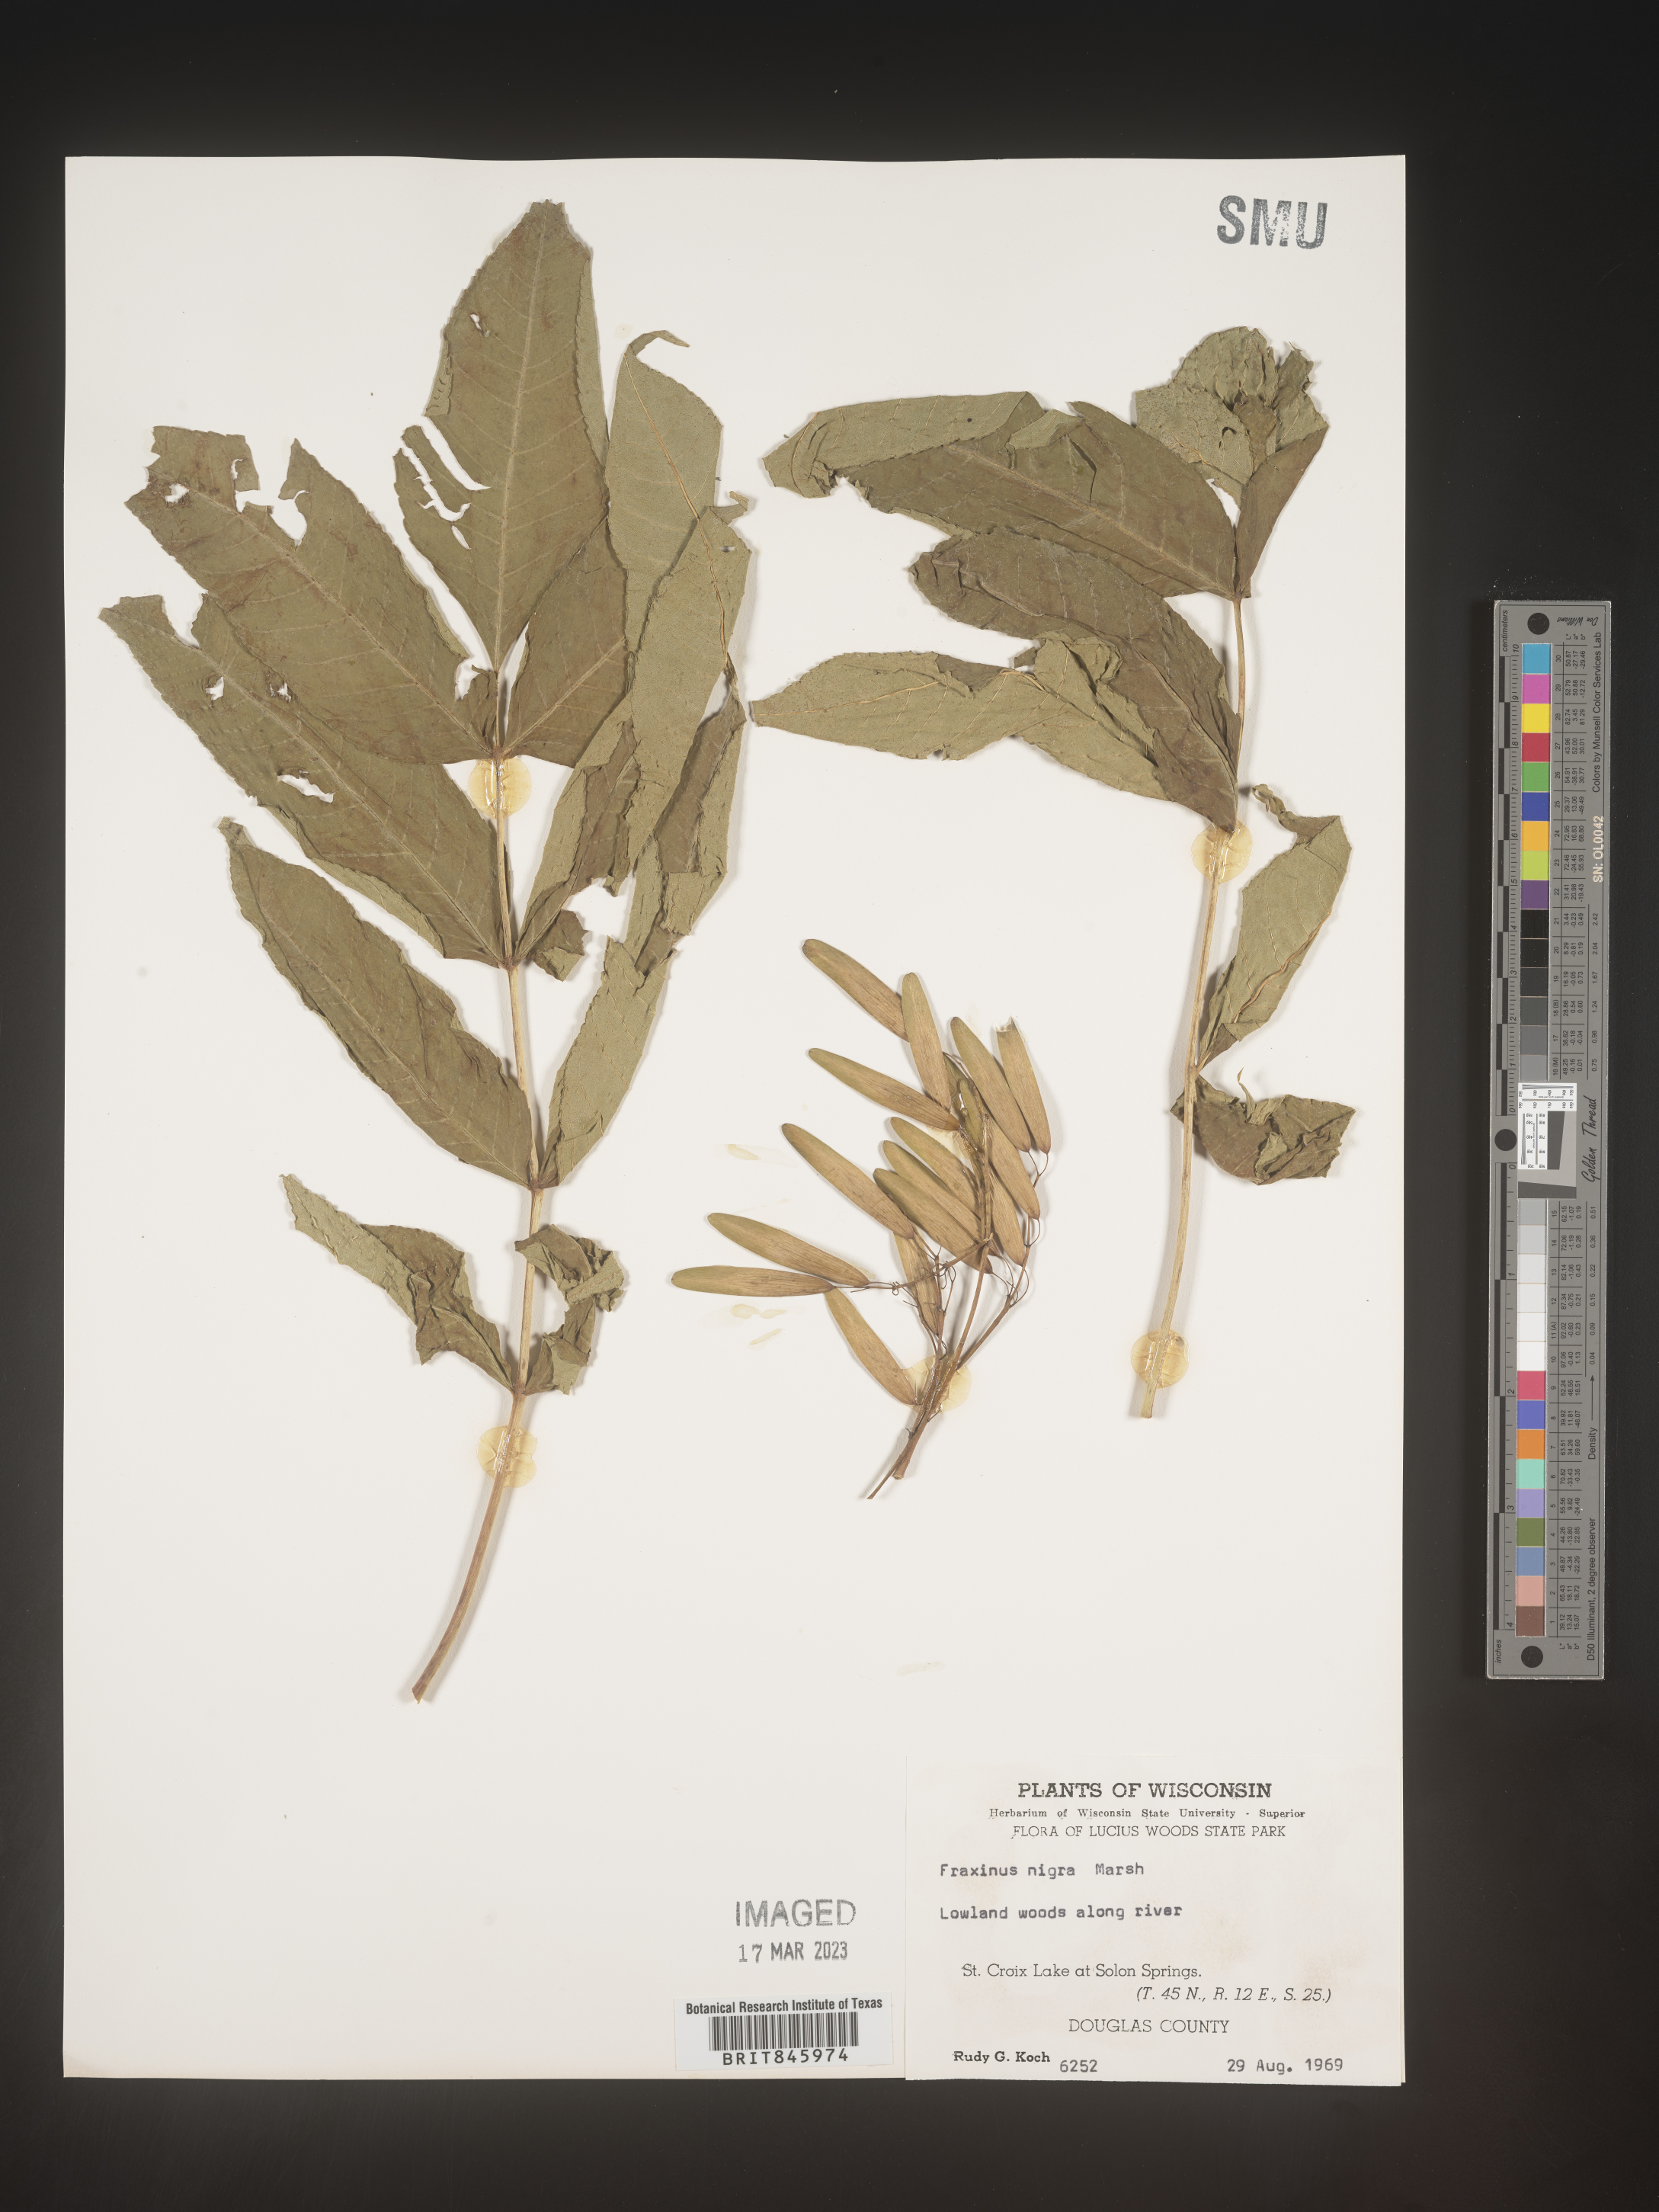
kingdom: Plantae
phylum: Tracheophyta
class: Magnoliopsida
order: Lamiales
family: Oleaceae
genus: Fraxinus
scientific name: Fraxinus nigra
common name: Black ash
